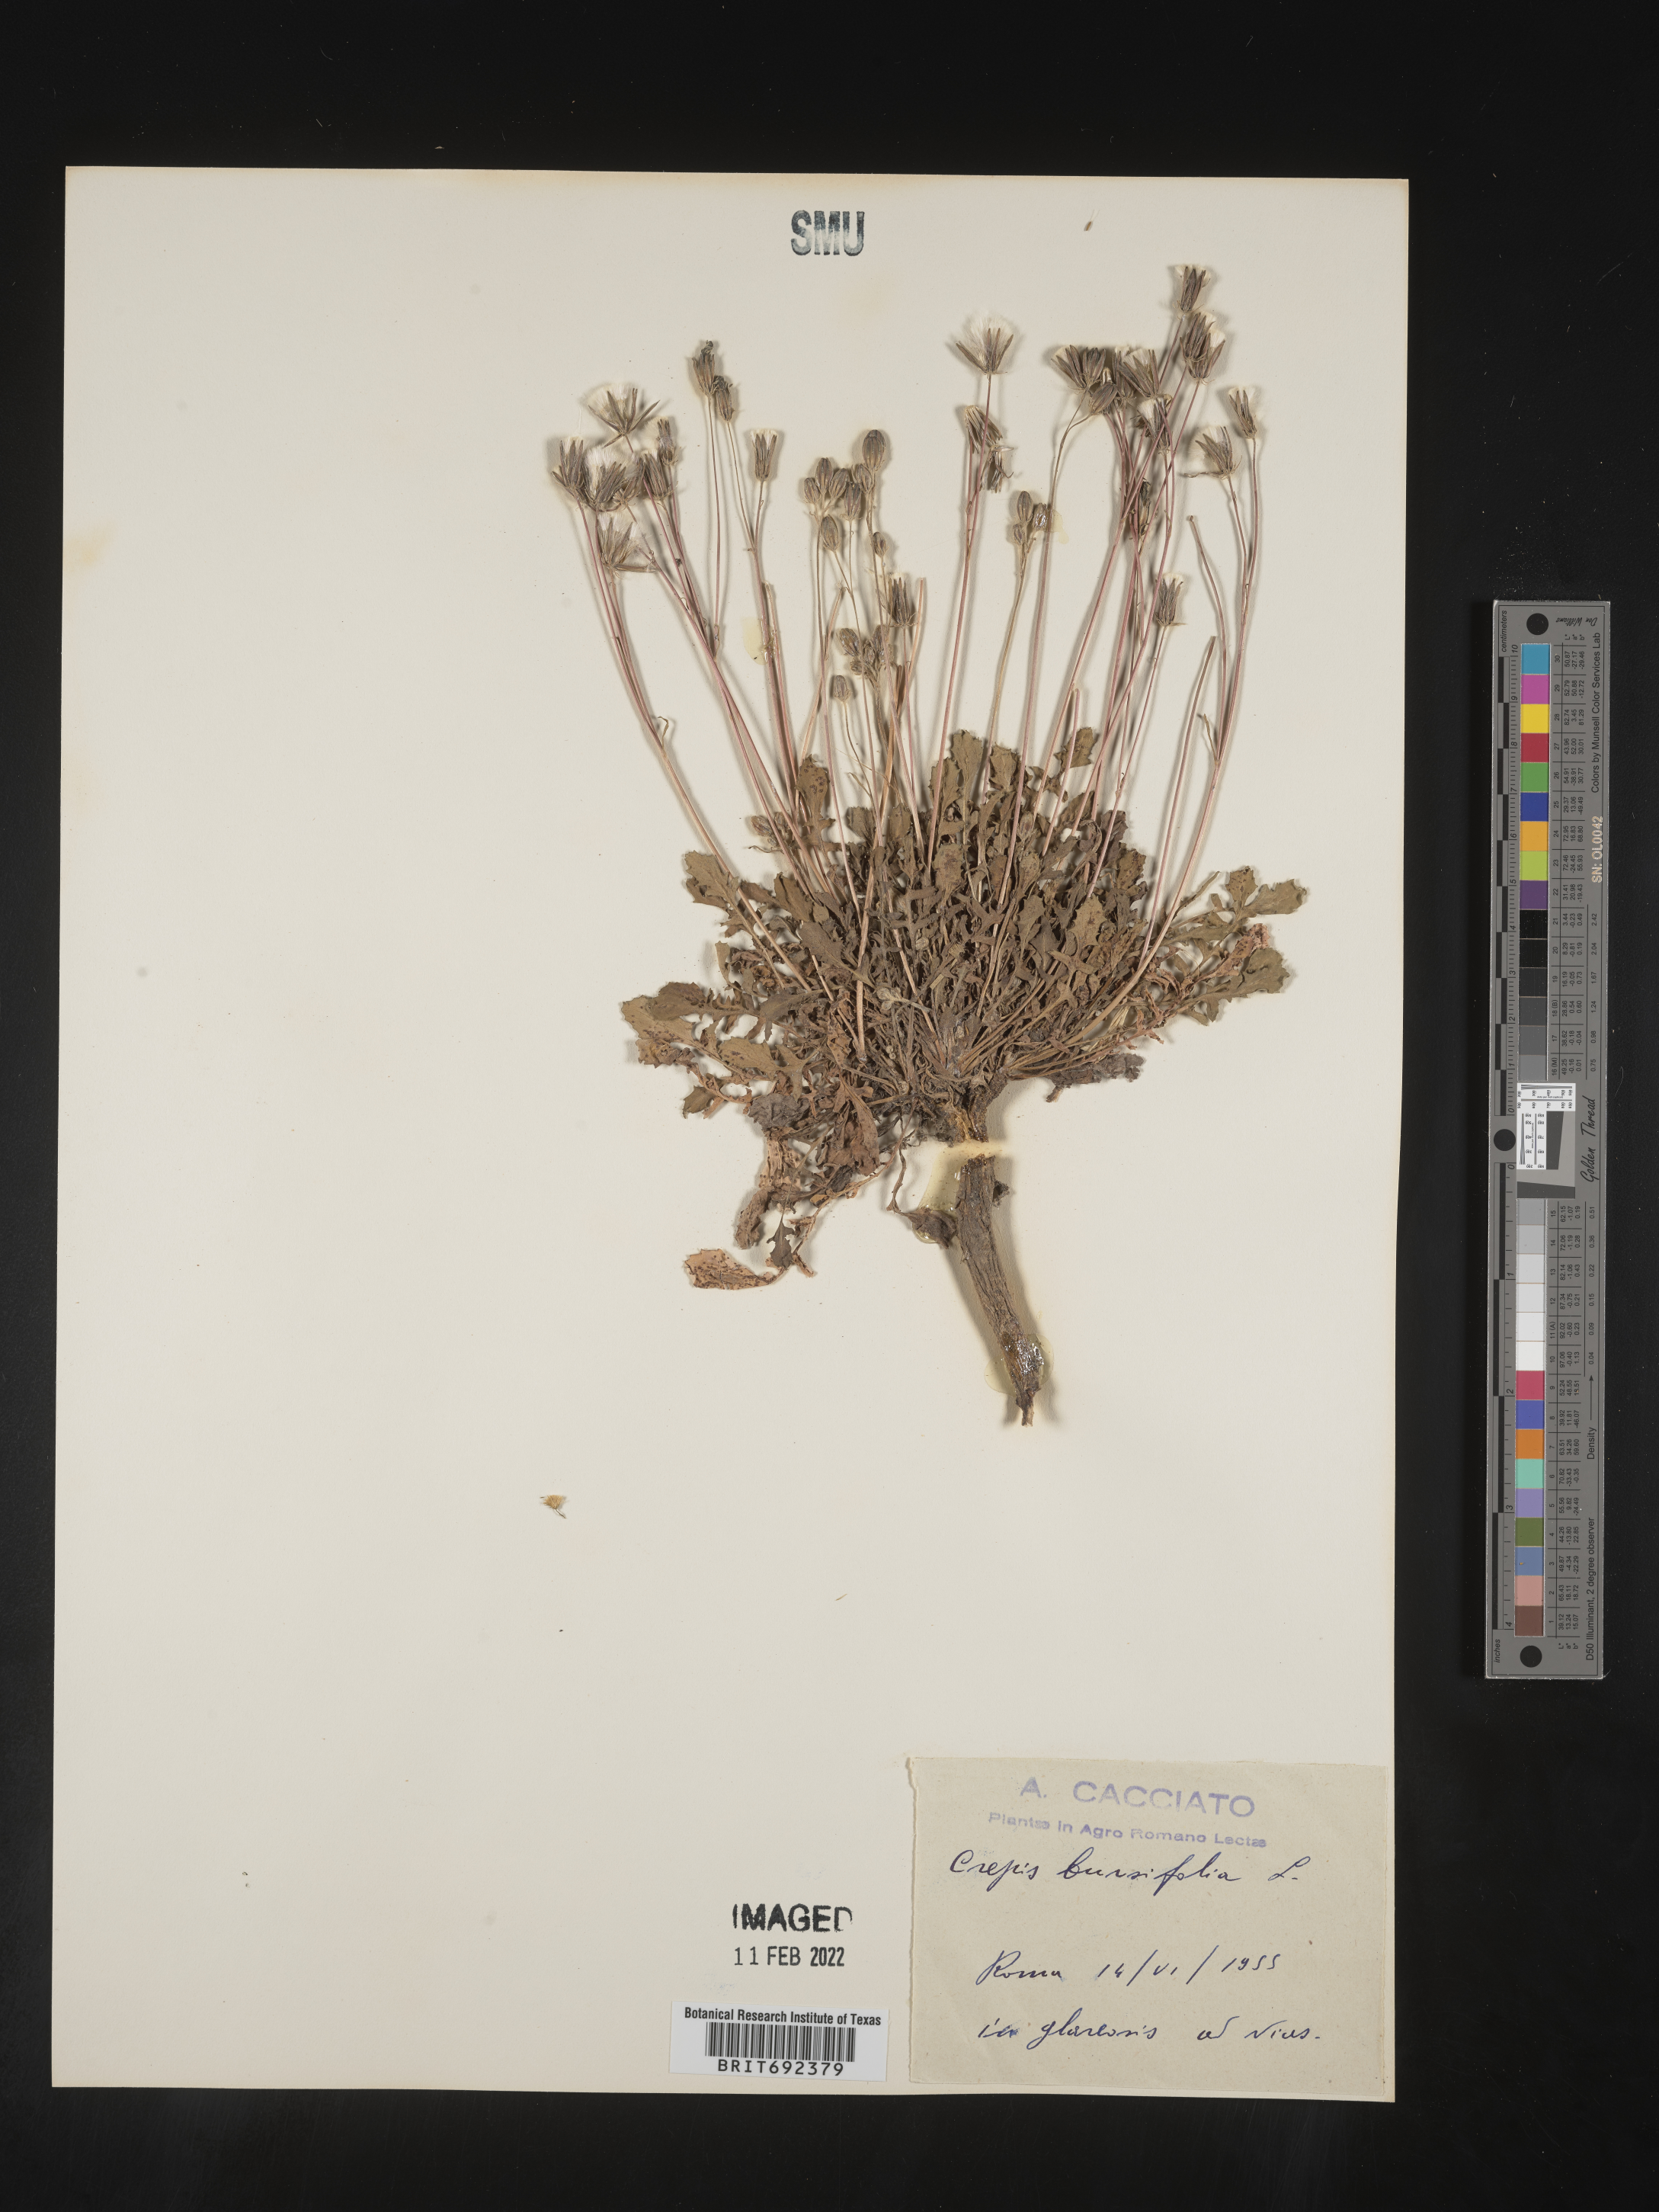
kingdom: Plantae
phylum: Tracheophyta
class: Magnoliopsida
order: Asterales
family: Asteraceae
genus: Crepis
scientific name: Crepis
